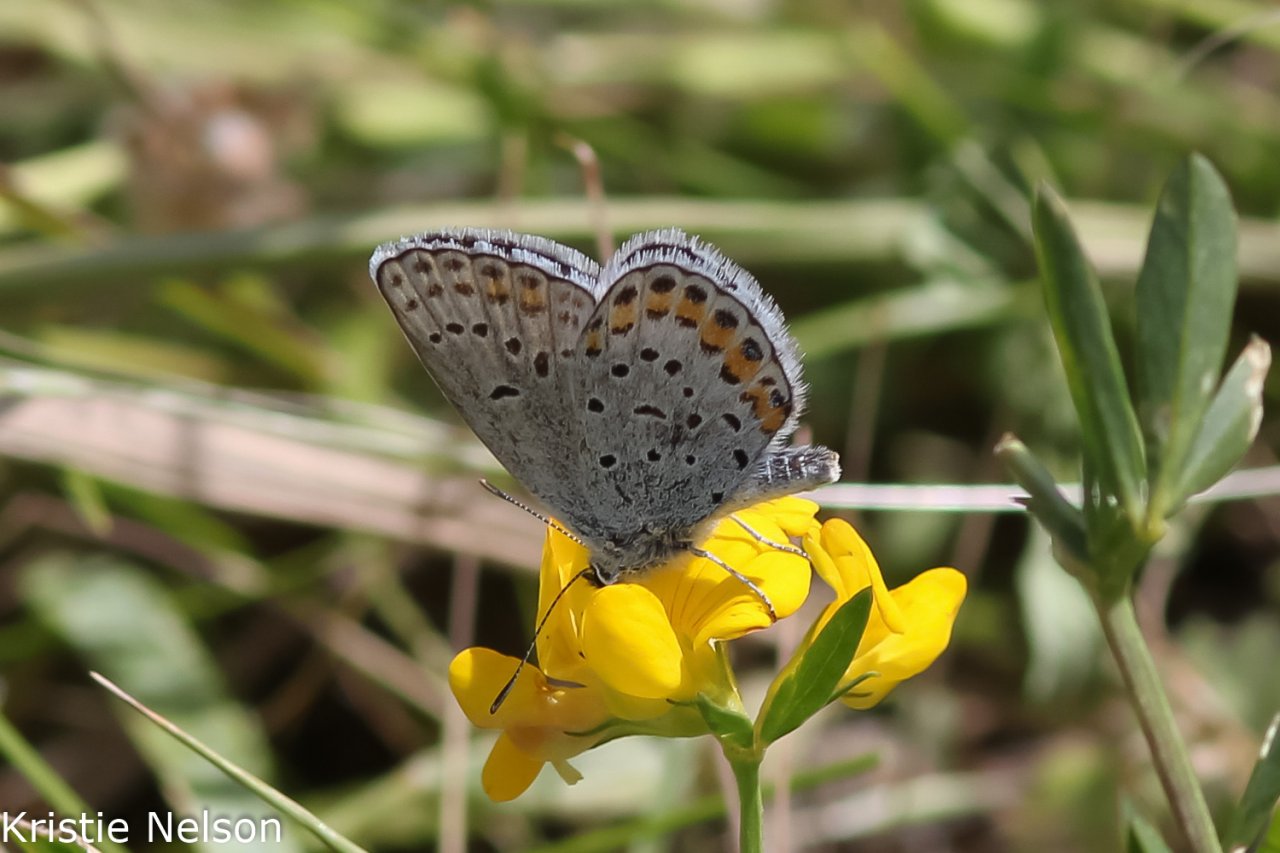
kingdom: Animalia
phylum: Arthropoda
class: Insecta
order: Lepidoptera
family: Lycaenidae
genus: Lycaeides
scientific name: Lycaeides melissa
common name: Melissa Blue
